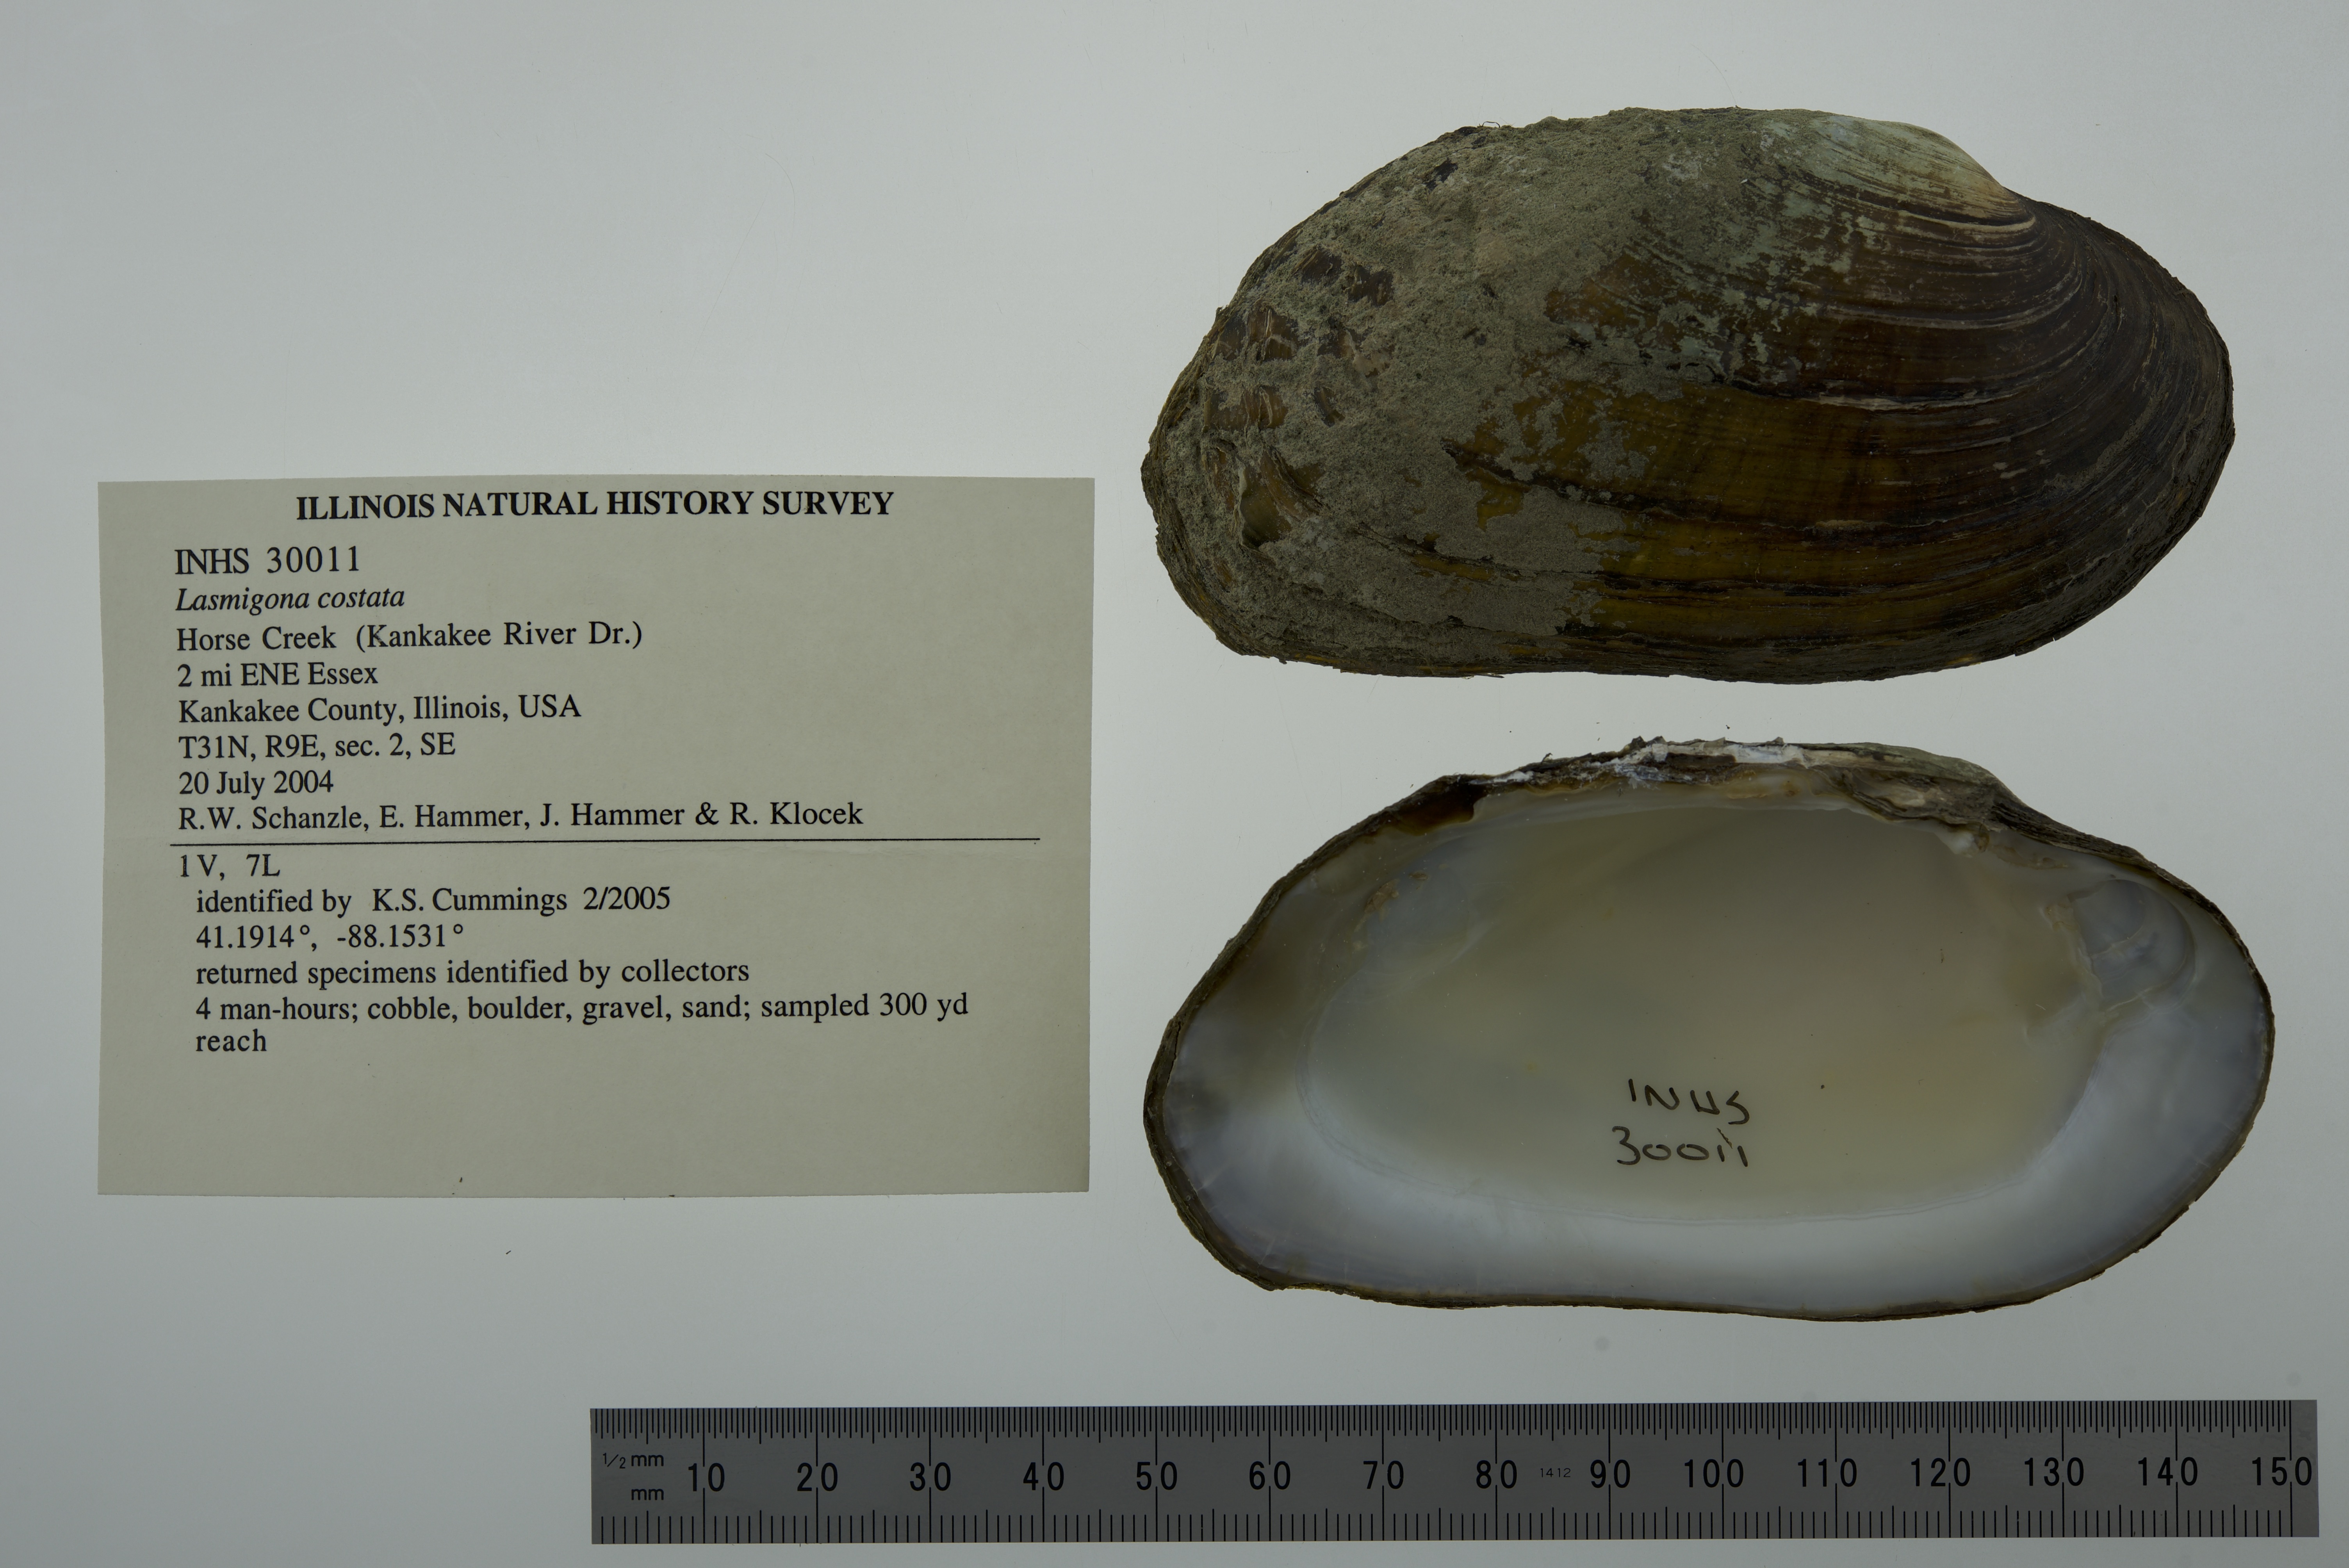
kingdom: Animalia
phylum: Mollusca
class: Bivalvia
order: Unionida
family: Unionidae
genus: Lasmigona
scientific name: Lasmigona costata
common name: Flutedshell
